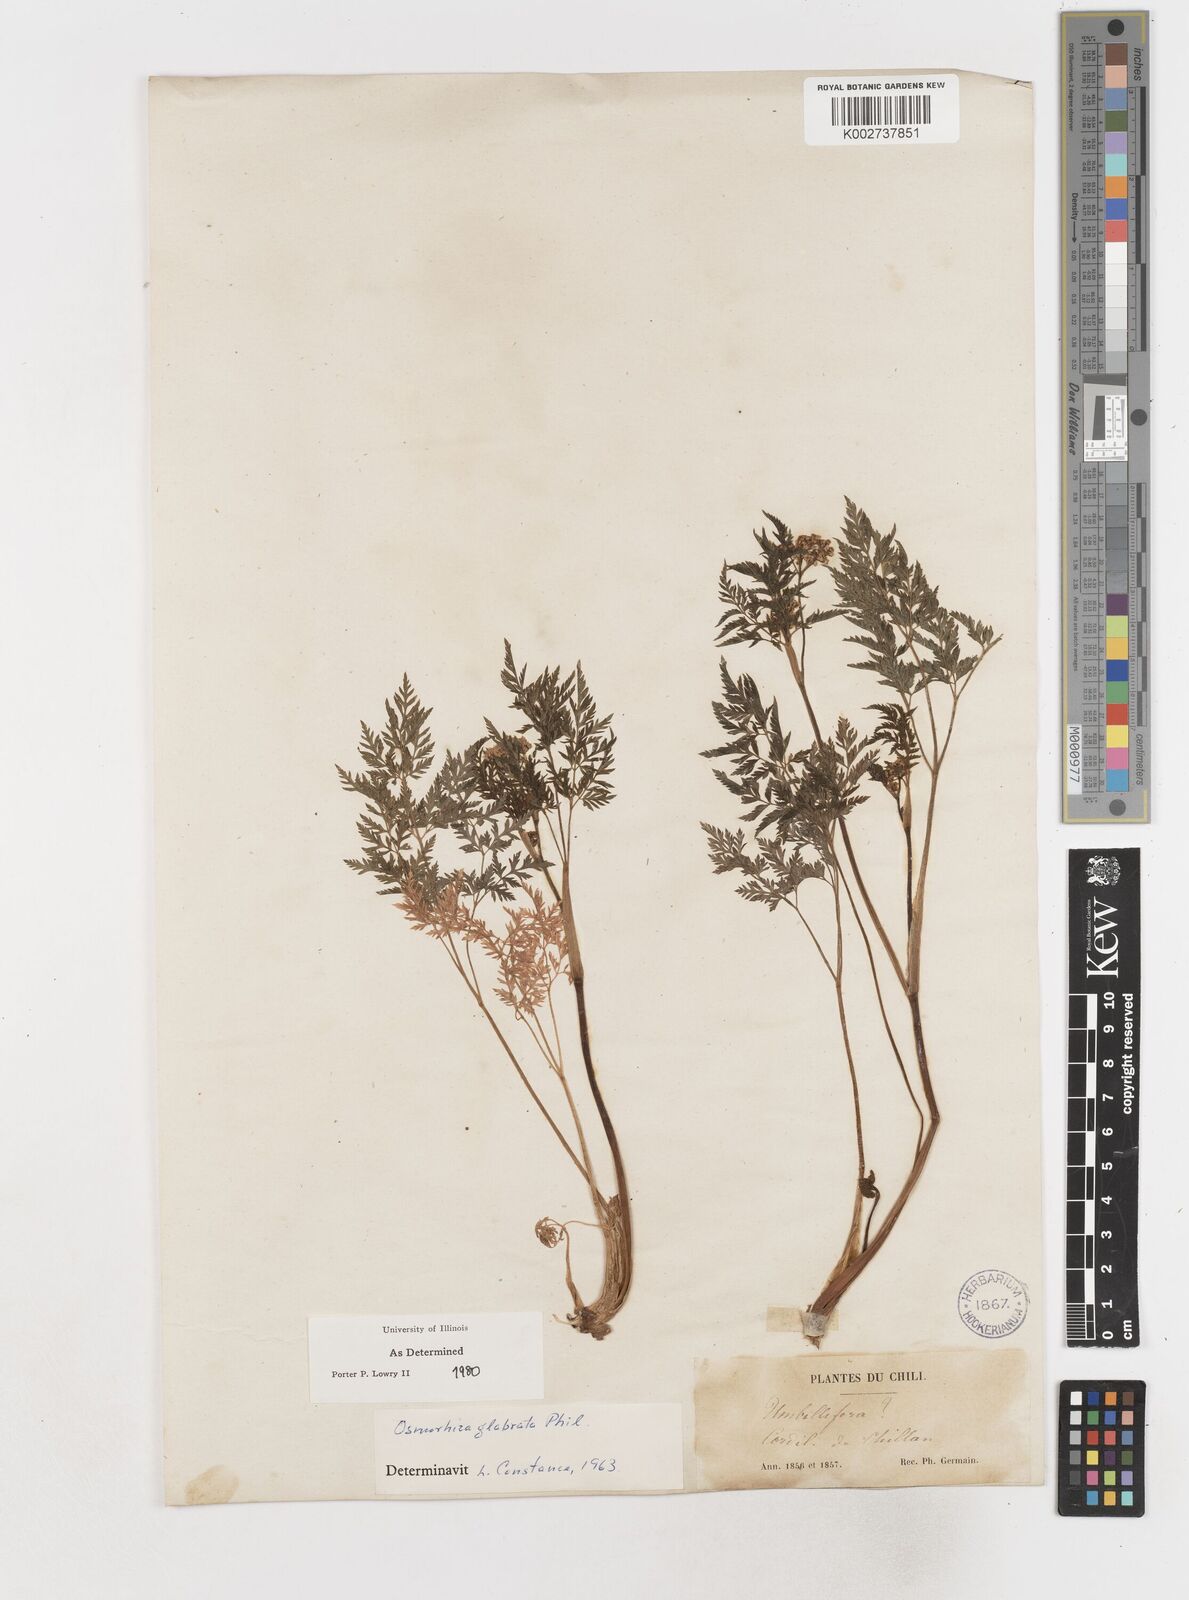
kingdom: Plantae
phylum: Tracheophyta
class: Magnoliopsida
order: Apiales
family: Apiaceae
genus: Osmorhiza
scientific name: Osmorhiza glabrata
